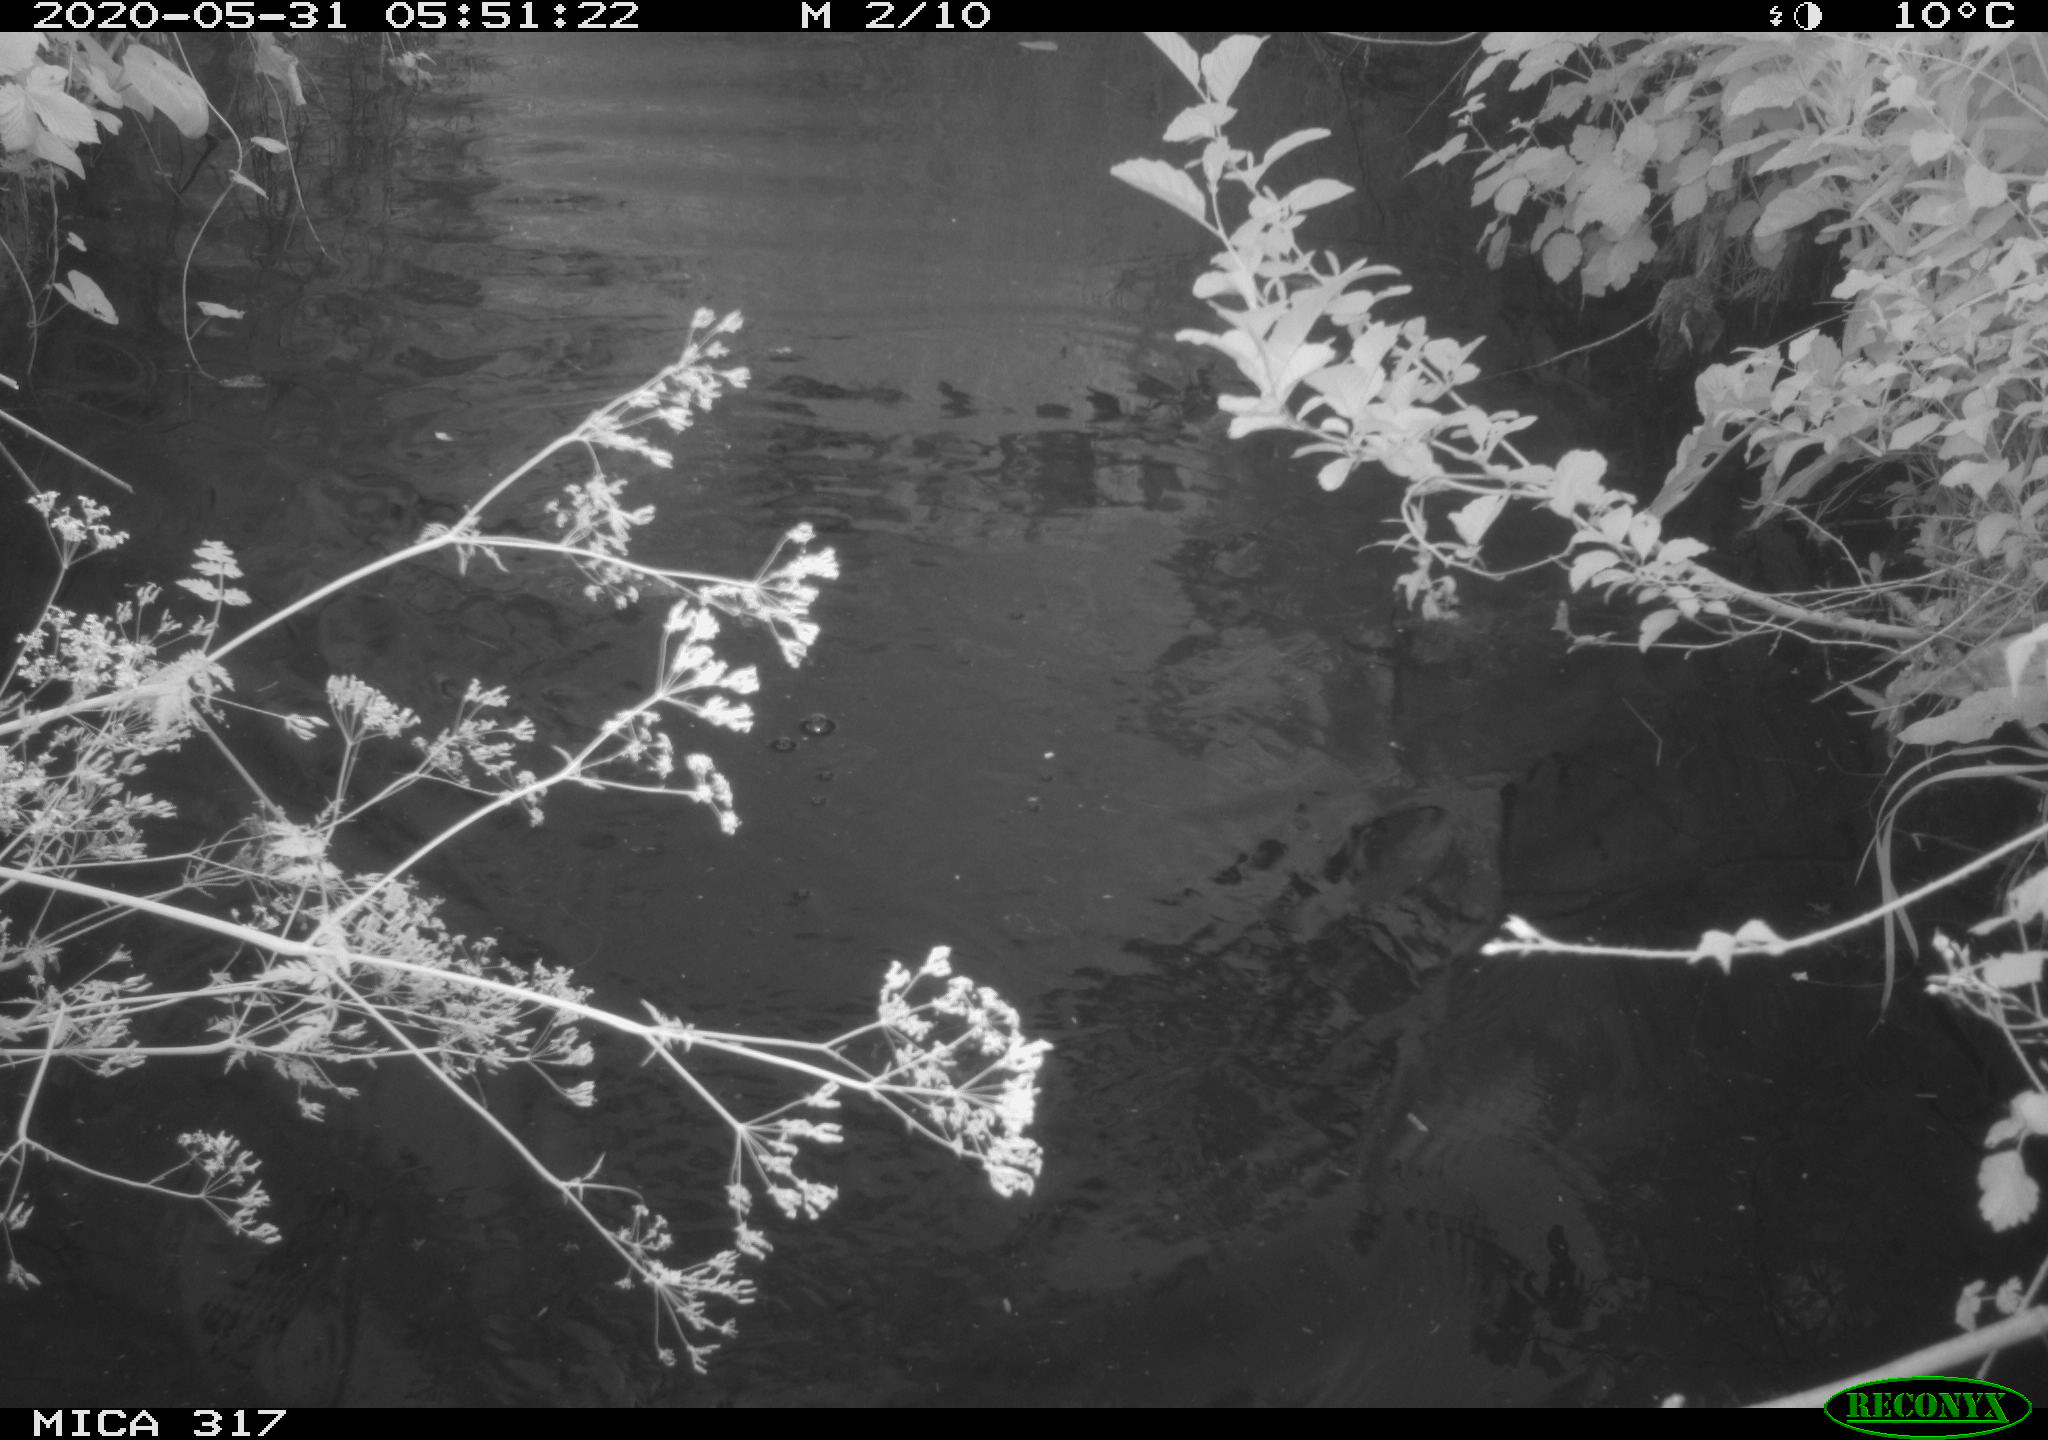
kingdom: Animalia
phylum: Chordata
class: Aves
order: Anseriformes
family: Anatidae
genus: Anas
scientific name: Anas platyrhynchos
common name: Mallard
